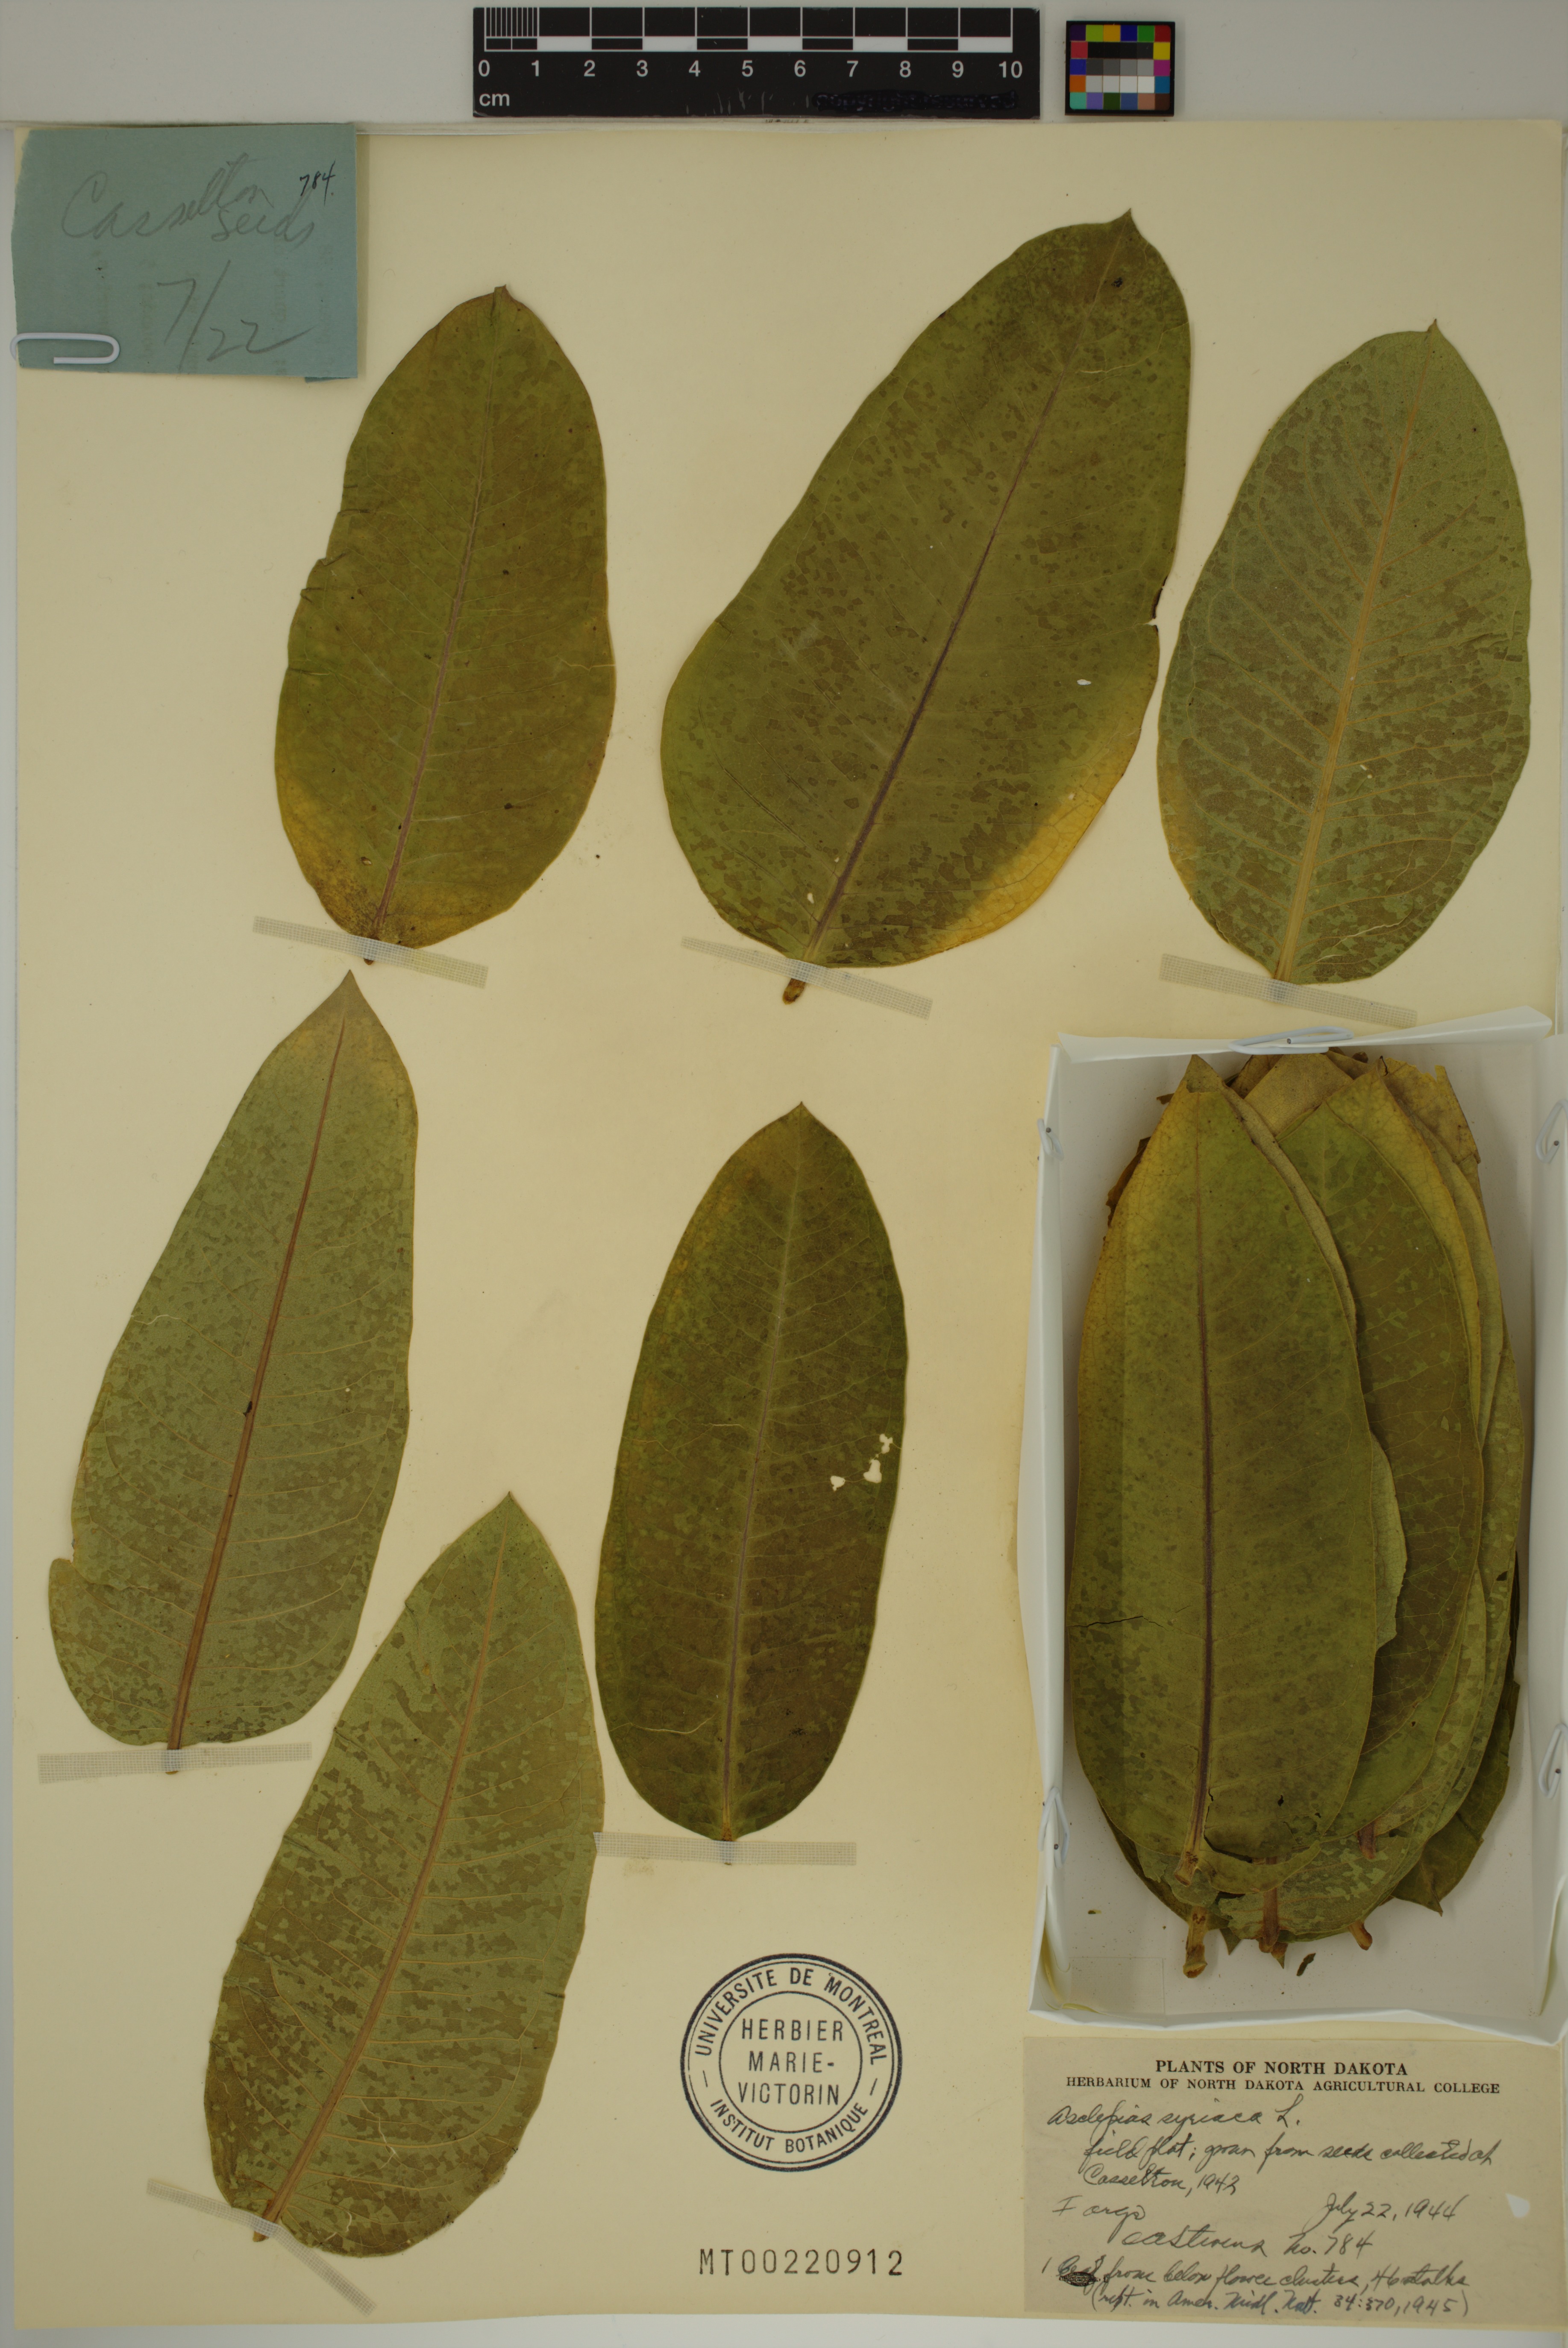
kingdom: Plantae
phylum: Tracheophyta
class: Magnoliopsida
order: Gentianales
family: Apocynaceae
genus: Asclepias
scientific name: Asclepias syriaca
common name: Common milkweed
